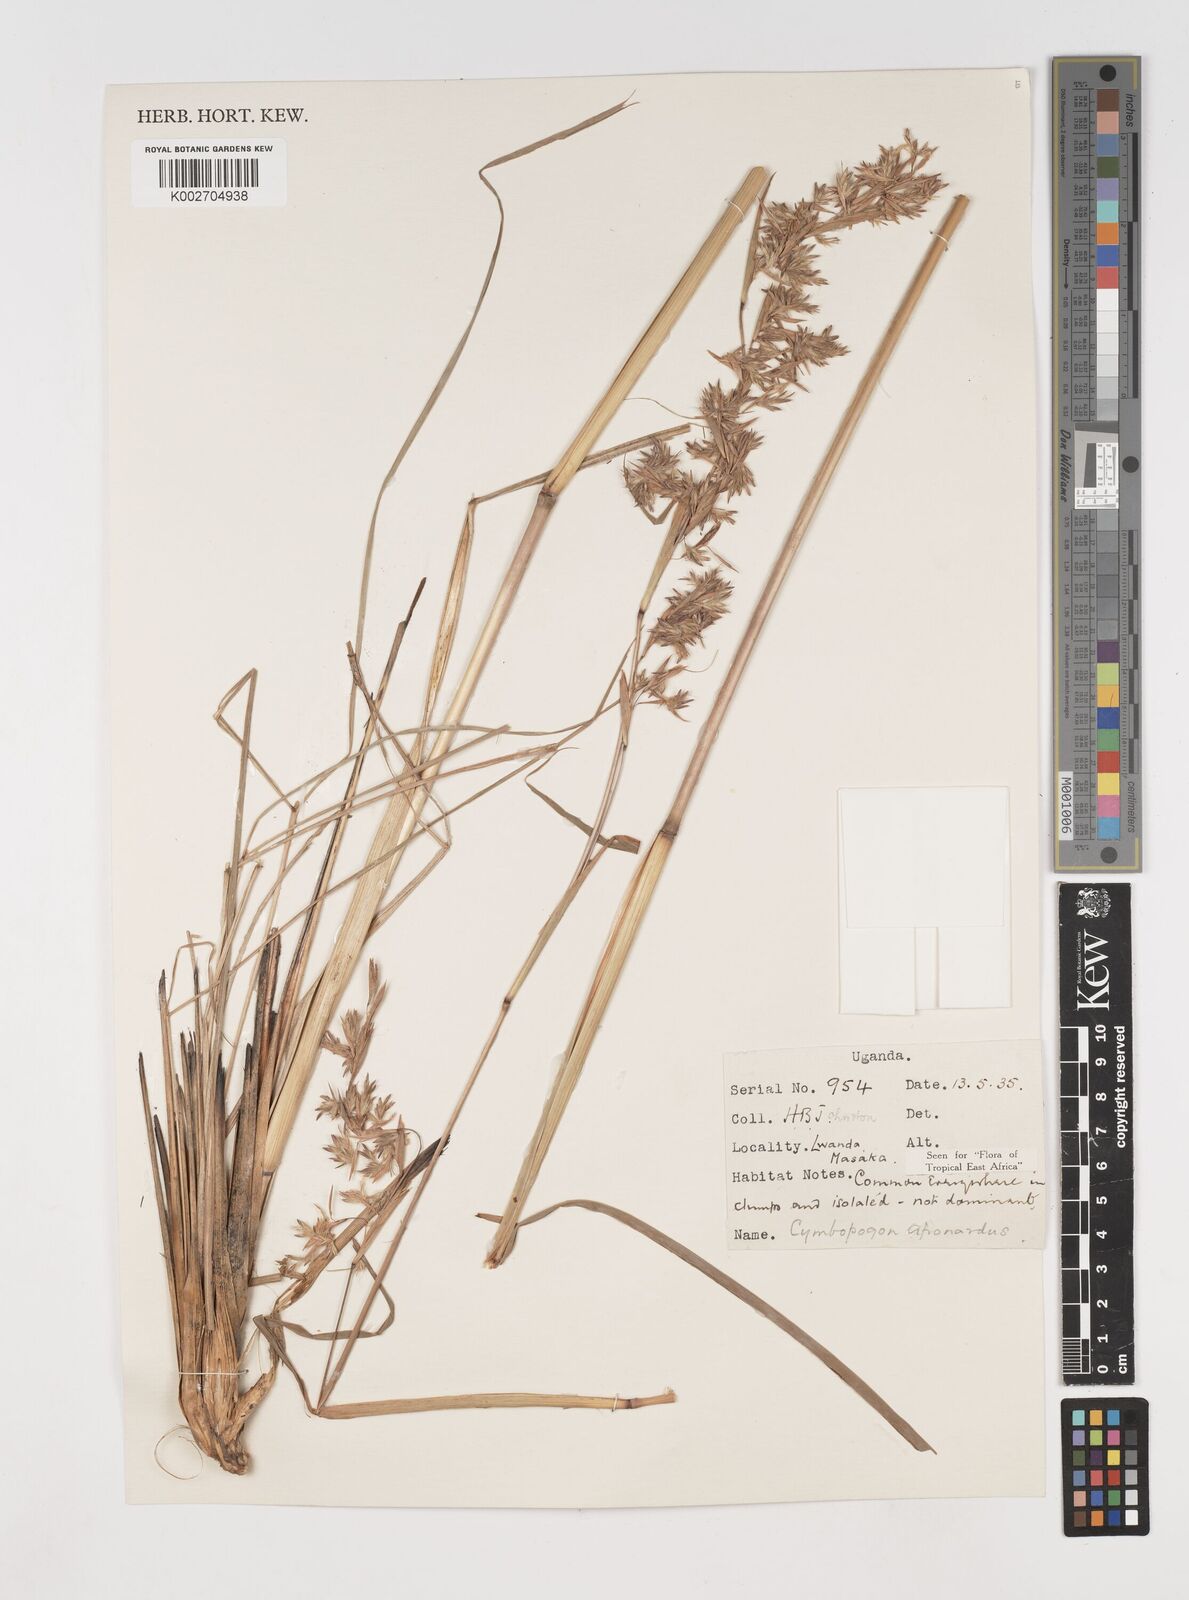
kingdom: Plantae
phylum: Tracheophyta
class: Liliopsida
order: Poales
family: Poaceae
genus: Cymbopogon
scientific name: Cymbopogon nardus
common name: Giant turpentine grass
